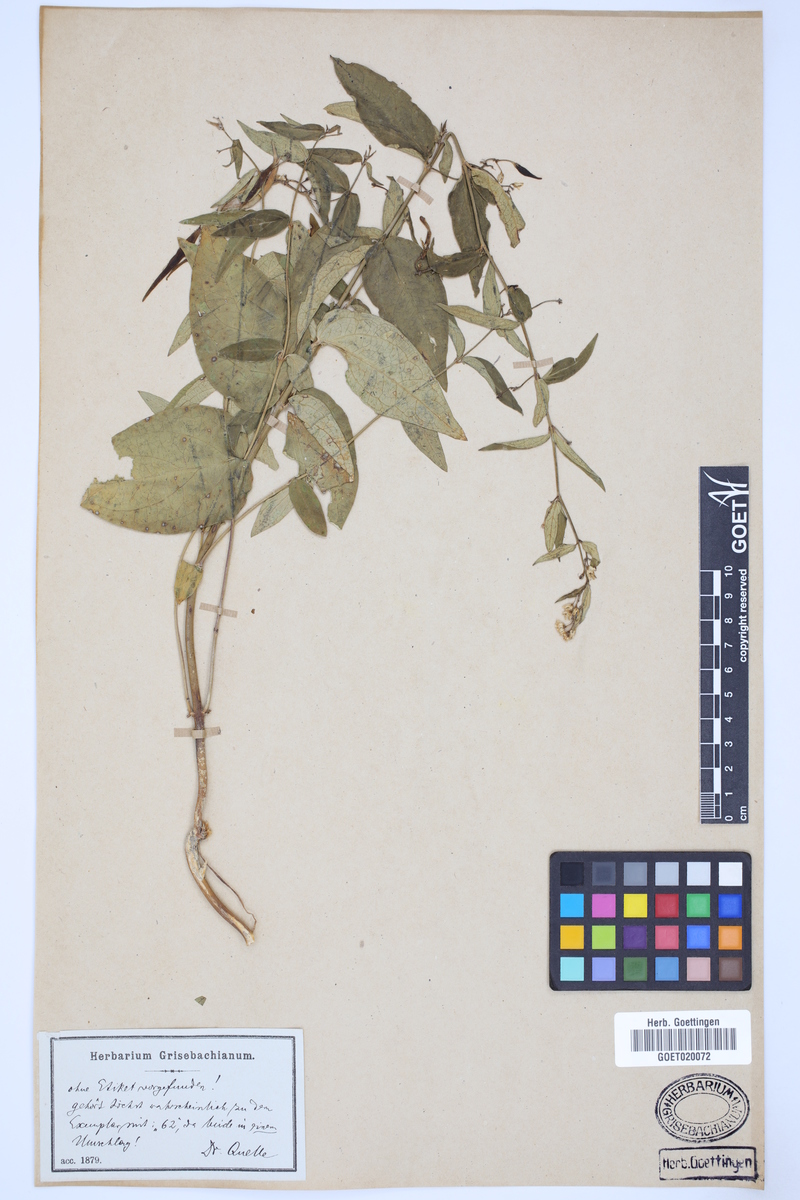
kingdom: Plantae
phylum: Tracheophyta
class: Magnoliopsida
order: Gentianales
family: Apocynaceae
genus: Vincetoxicum
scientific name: Vincetoxicum hirundinaria
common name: White swallowwort
